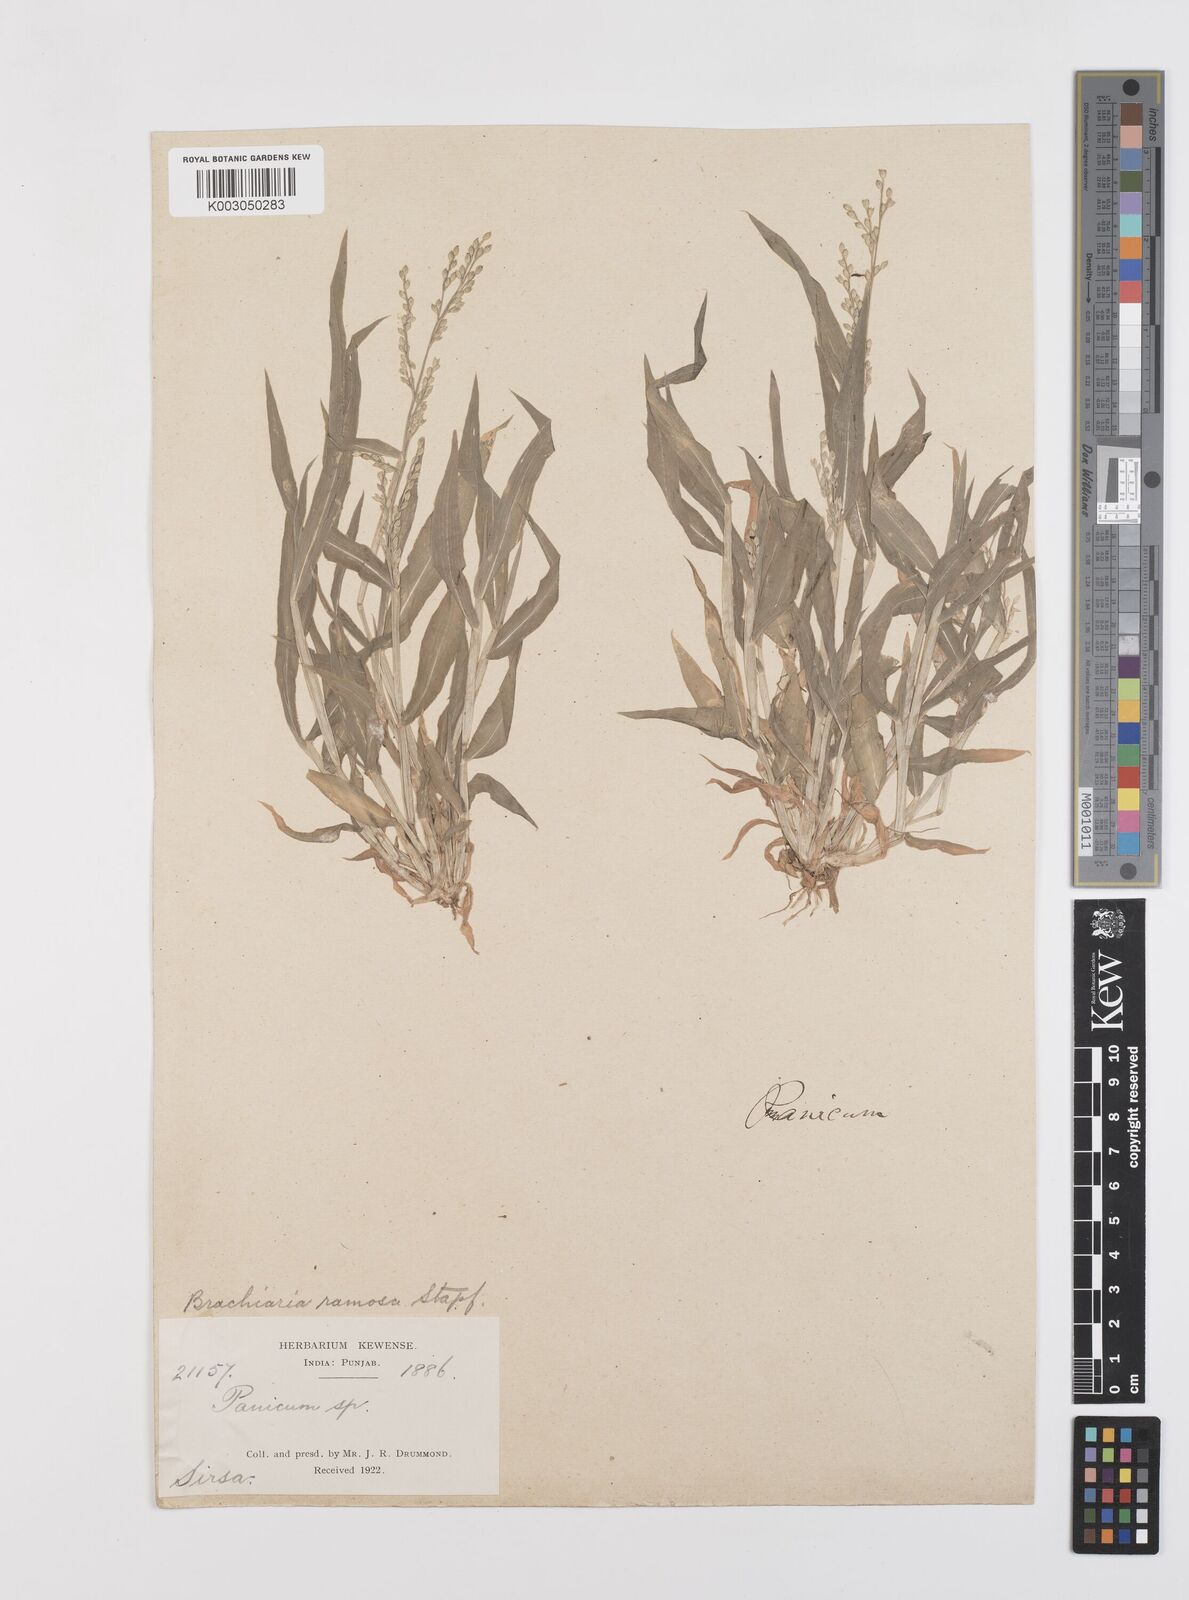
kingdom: Plantae
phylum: Tracheophyta
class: Liliopsida
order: Poales
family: Poaceae
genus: Urochloa
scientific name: Urochloa ramosa
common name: Browntop millet
